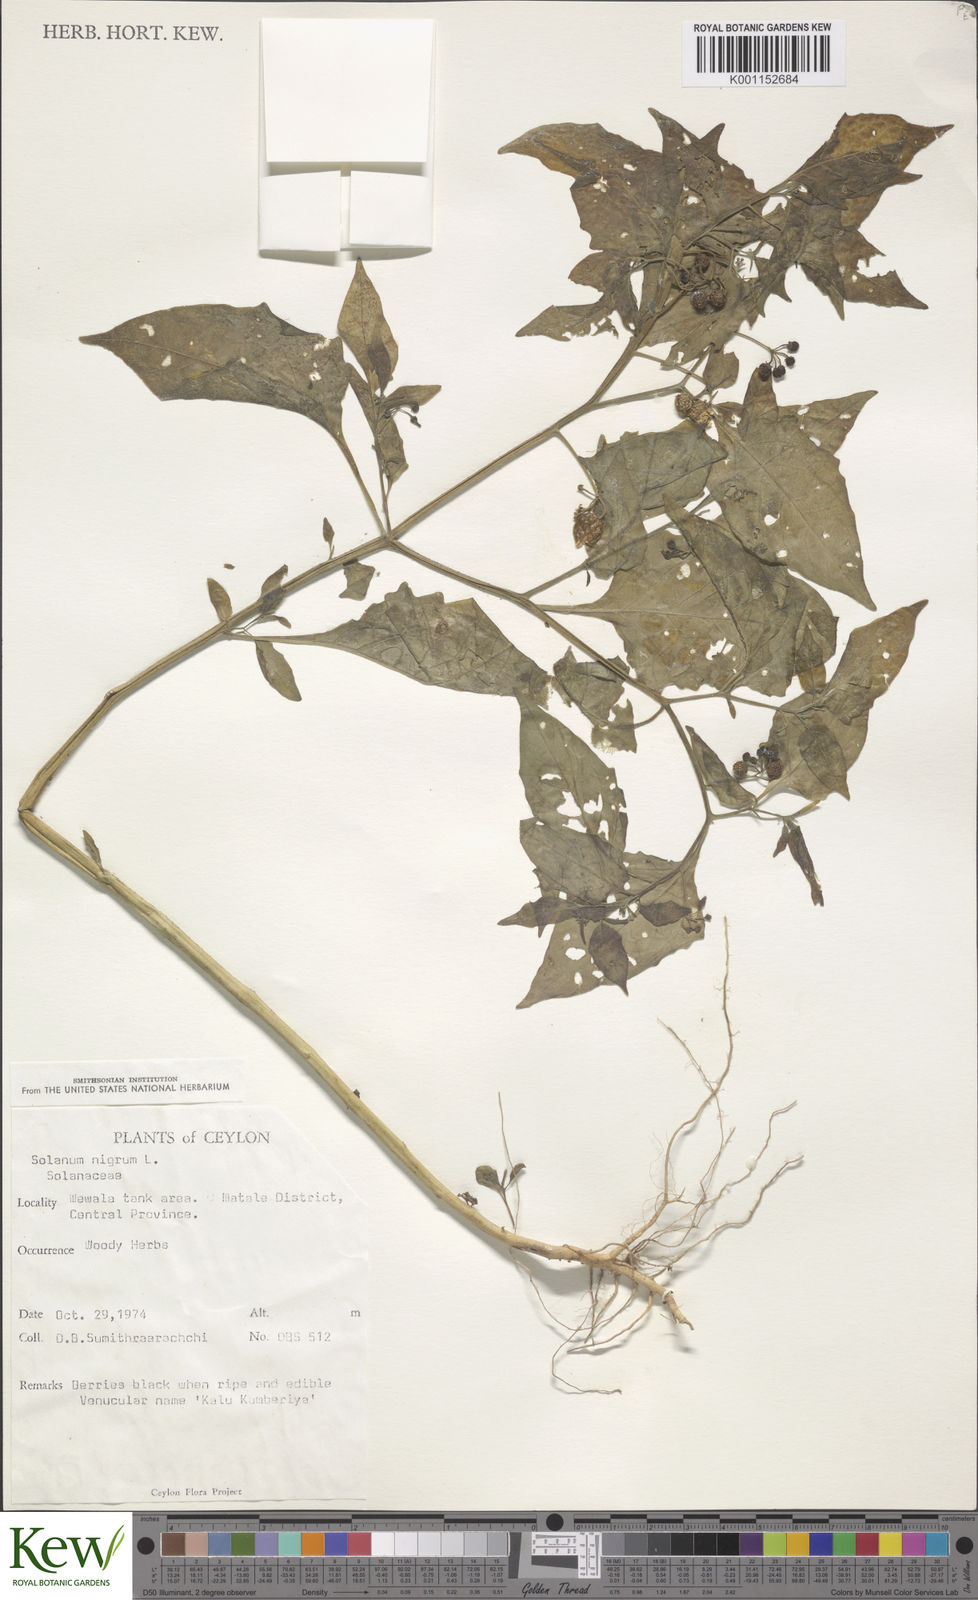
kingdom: Plantae
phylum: Tracheophyta
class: Magnoliopsida
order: Solanales
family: Solanaceae
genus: Solanum
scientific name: Solanum nigrum
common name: Black nightshade
